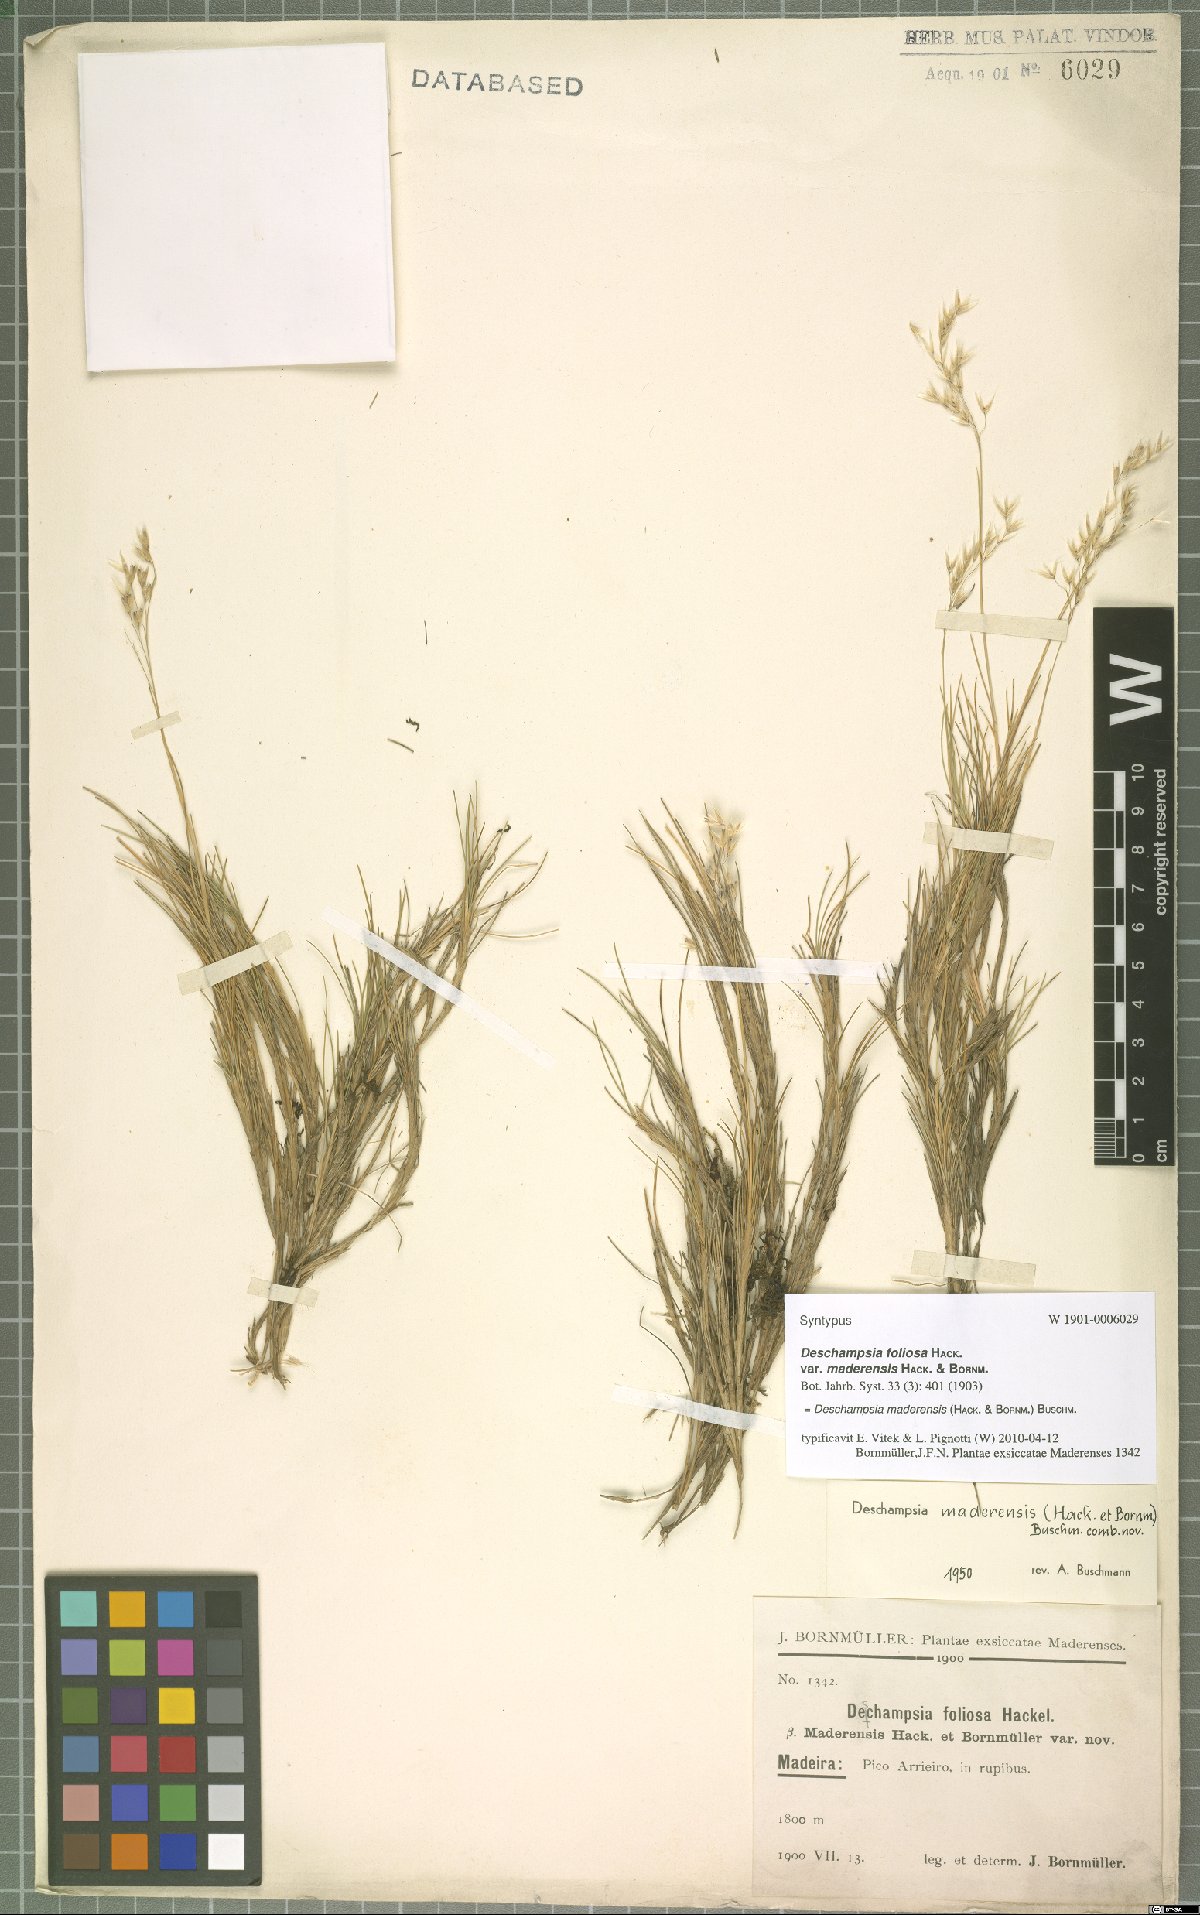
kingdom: Plantae
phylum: Tracheophyta
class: Liliopsida
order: Poales
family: Poaceae
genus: Avenella
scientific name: Avenella flexuosa
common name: Wavy hairgrass
